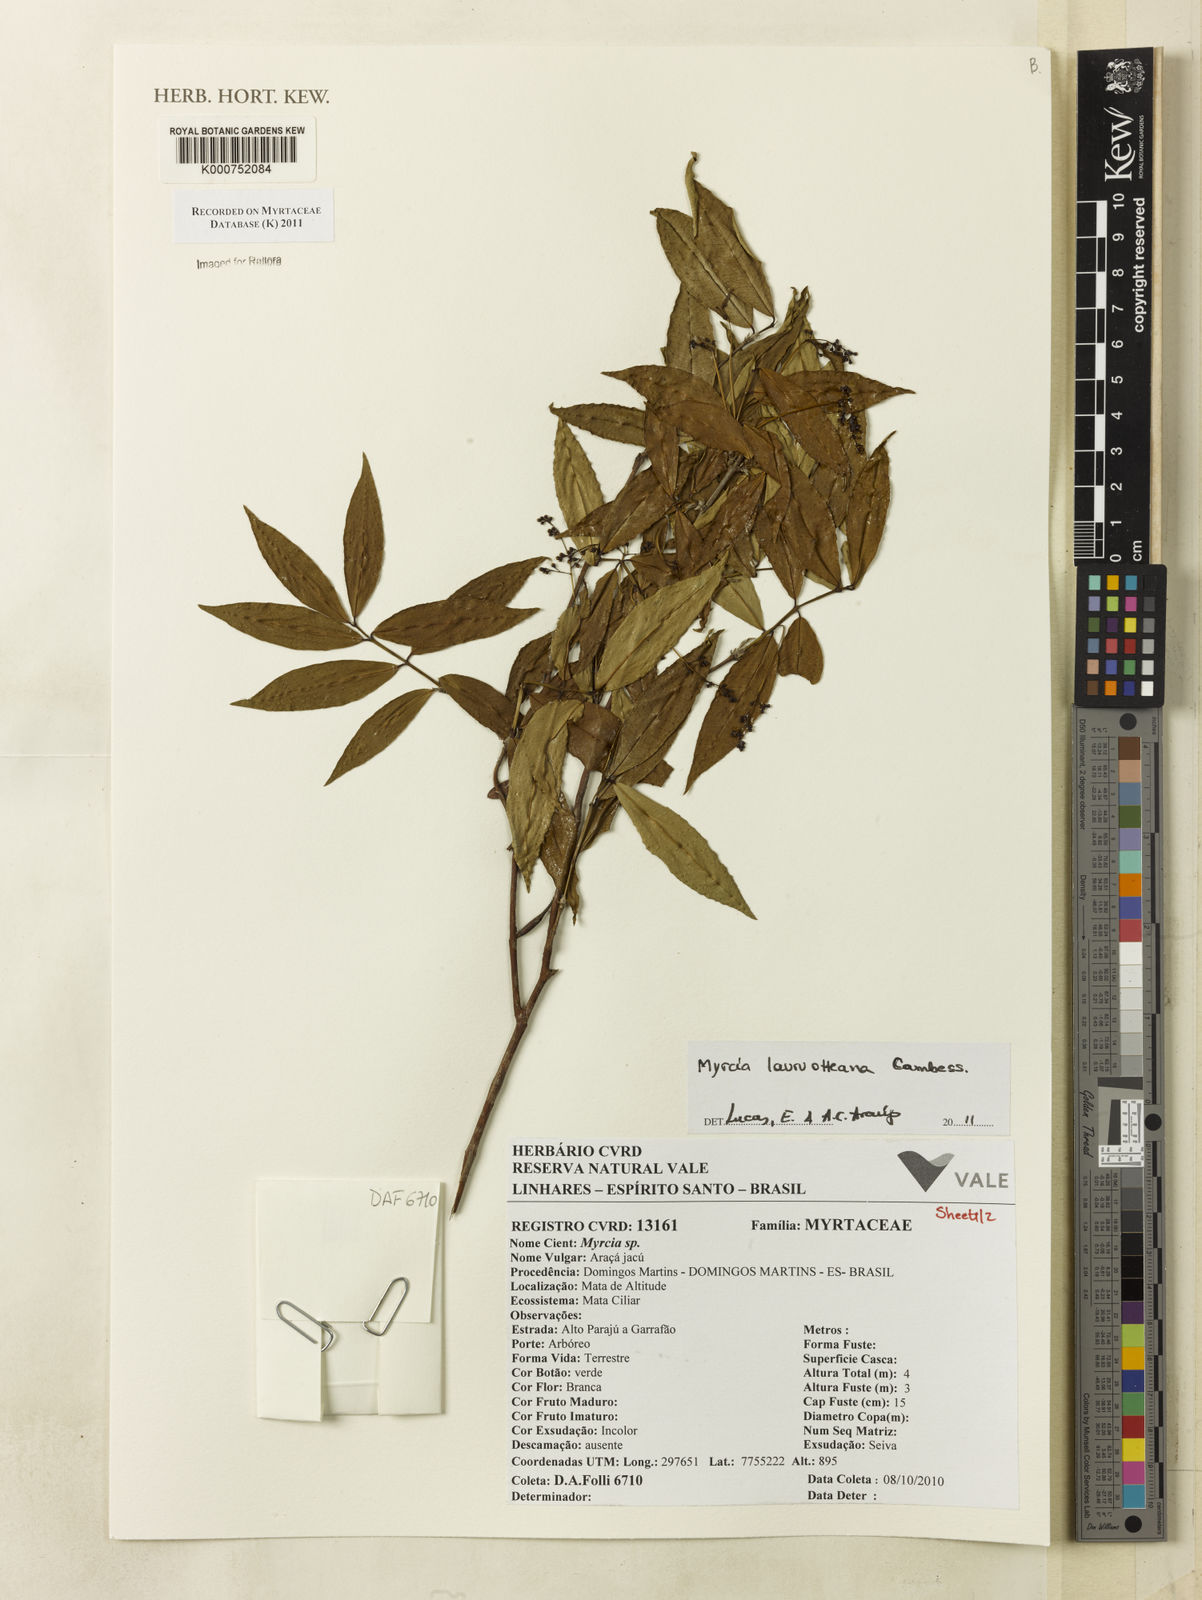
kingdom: Plantae
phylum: Tracheophyta
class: Magnoliopsida
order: Myrtales
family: Myrtaceae
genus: Myrcia
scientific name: Myrcia
